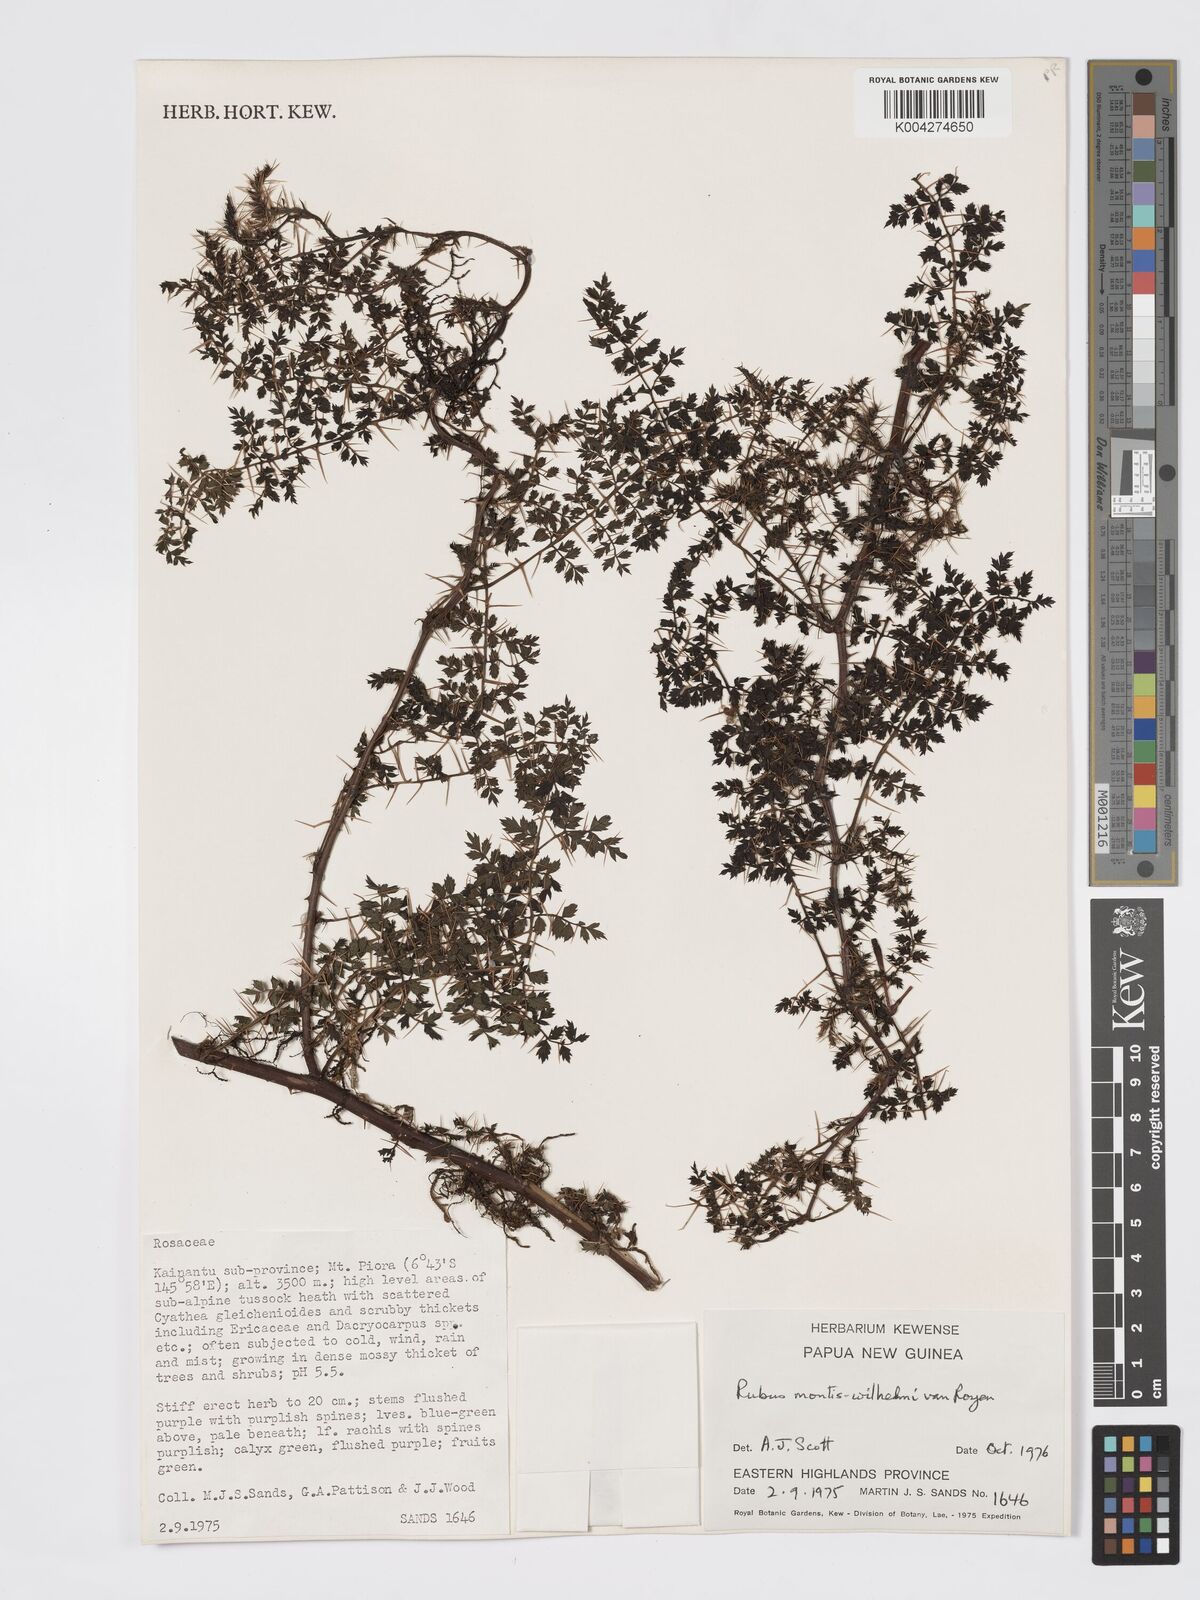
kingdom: Plantae
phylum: Tracheophyta
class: Magnoliopsida
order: Rosales
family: Rosaceae
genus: Rubus
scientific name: Rubus montis-wilhelmii
